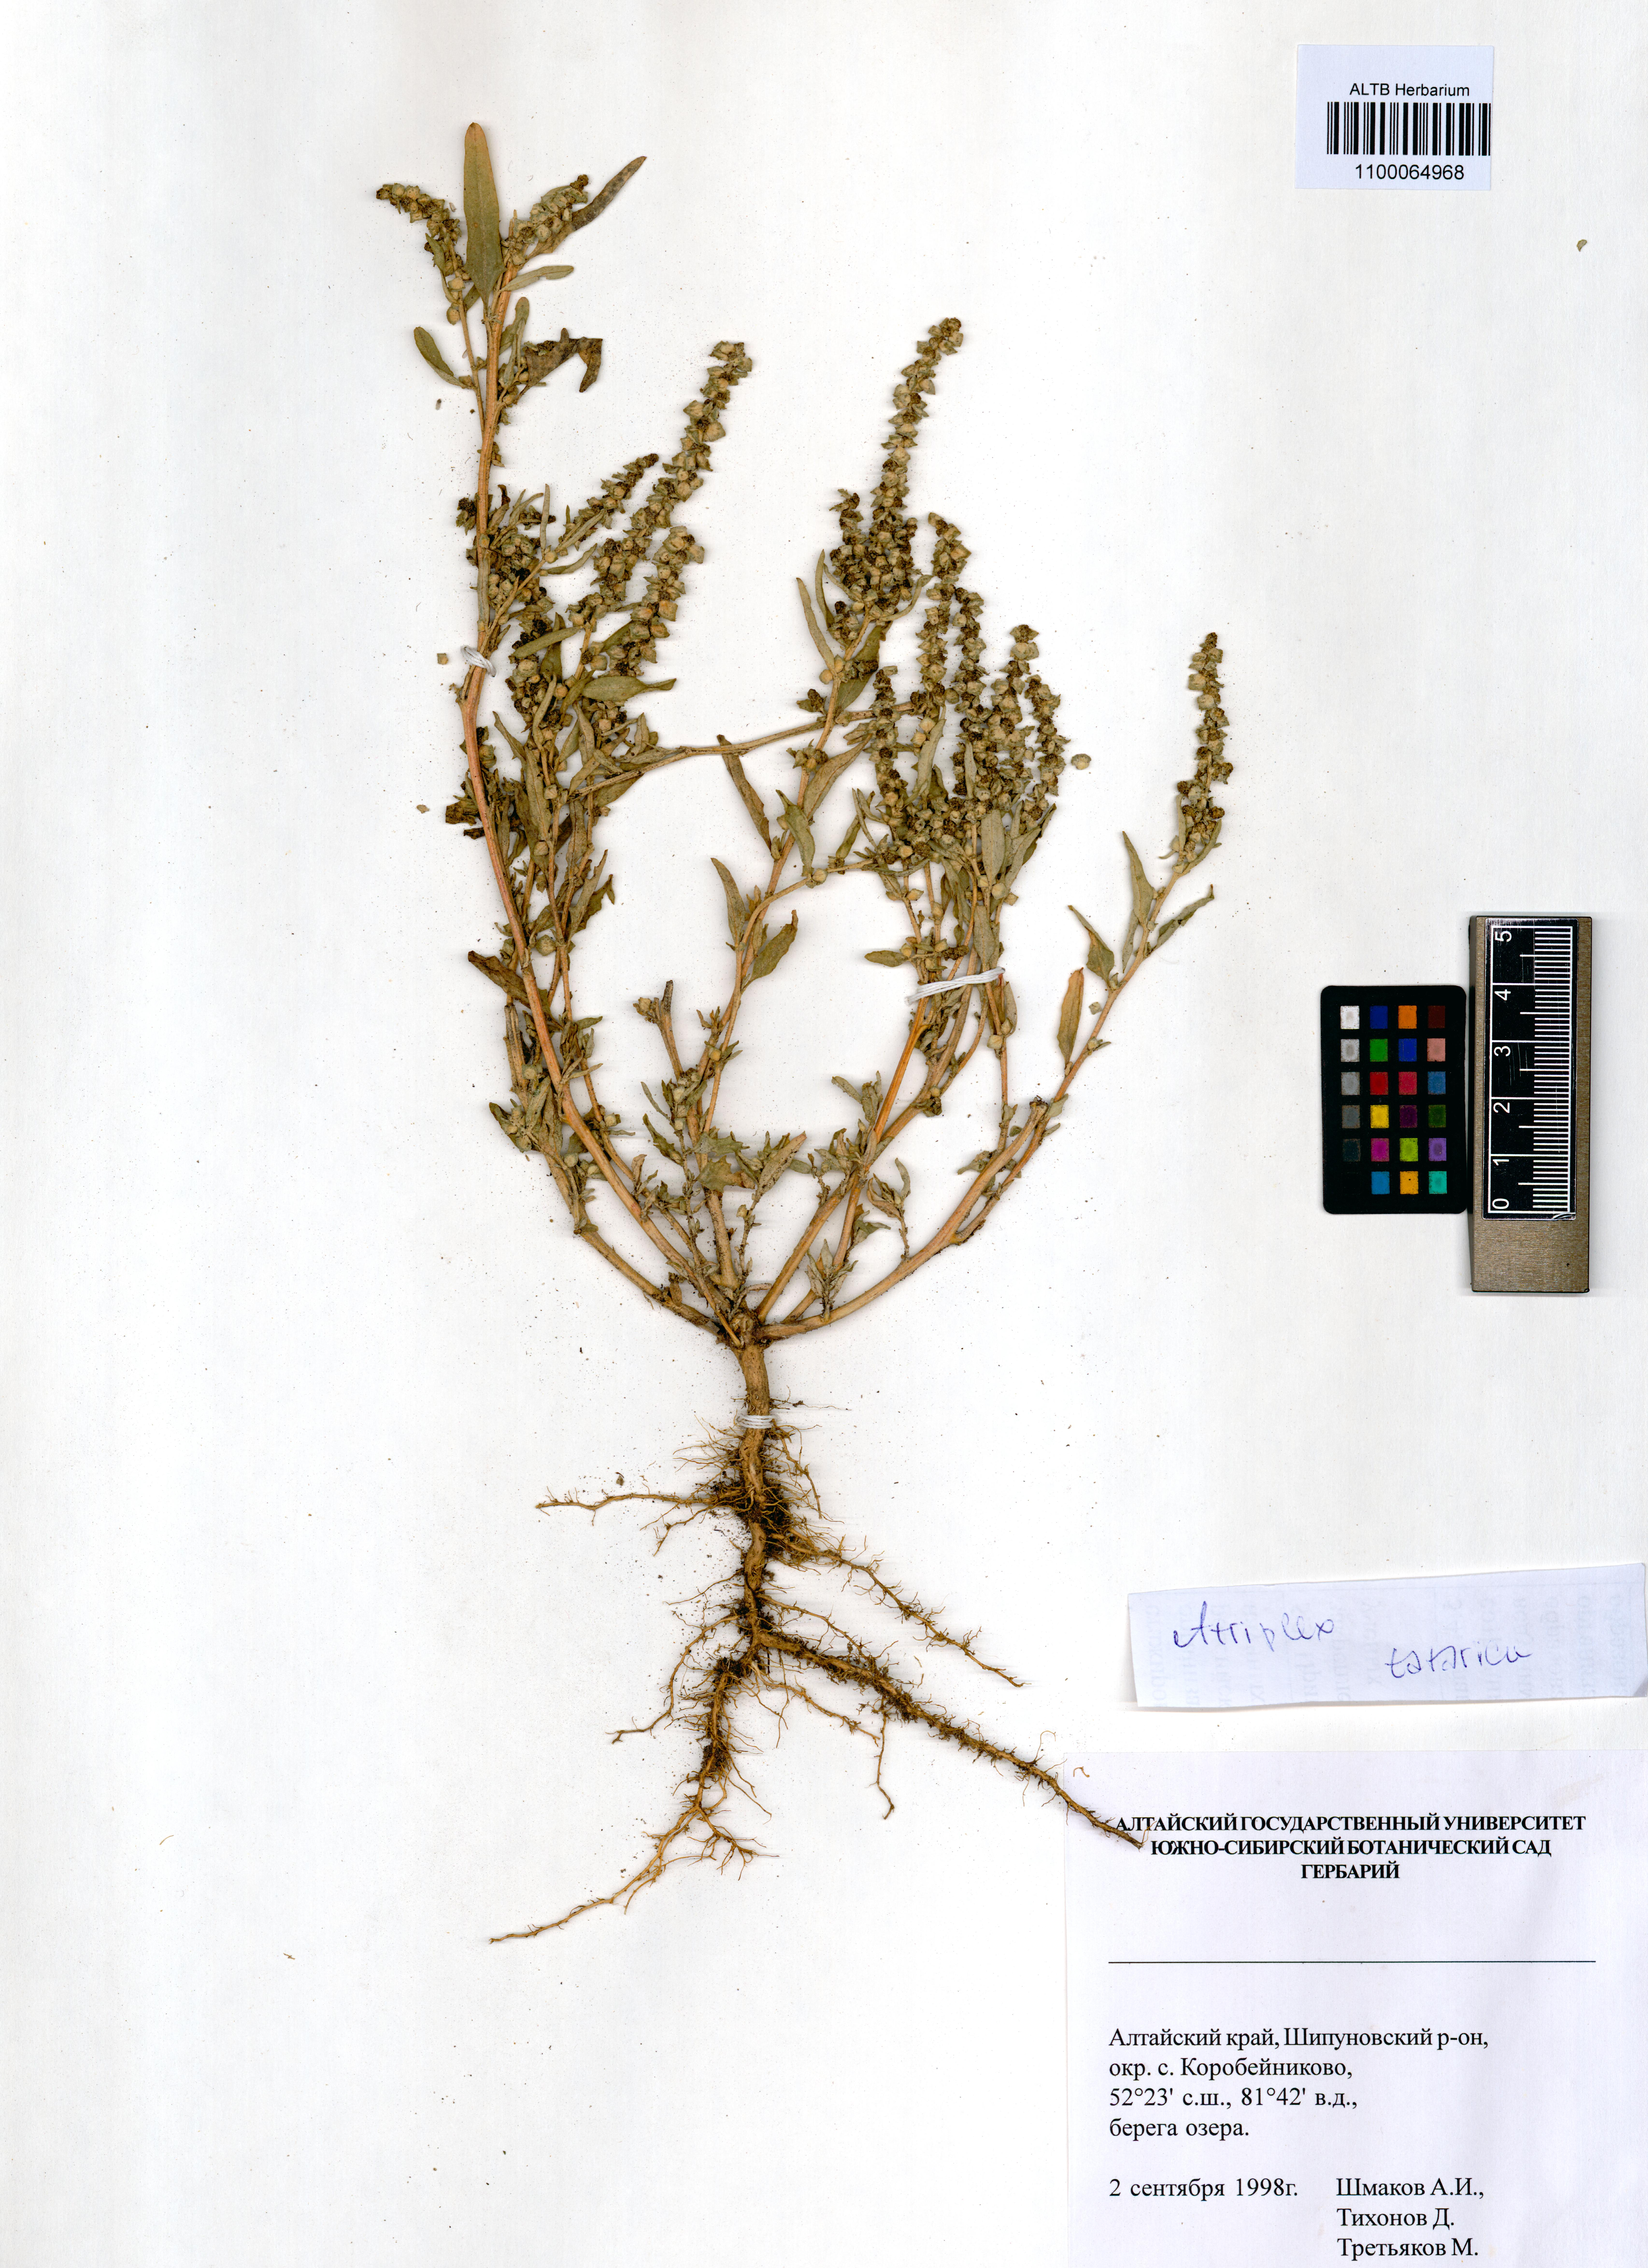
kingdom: Plantae
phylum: Tracheophyta
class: Magnoliopsida
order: Caryophyllales
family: Amaranthaceae
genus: Atriplex
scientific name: Atriplex tatarica
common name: Tatarian orache
